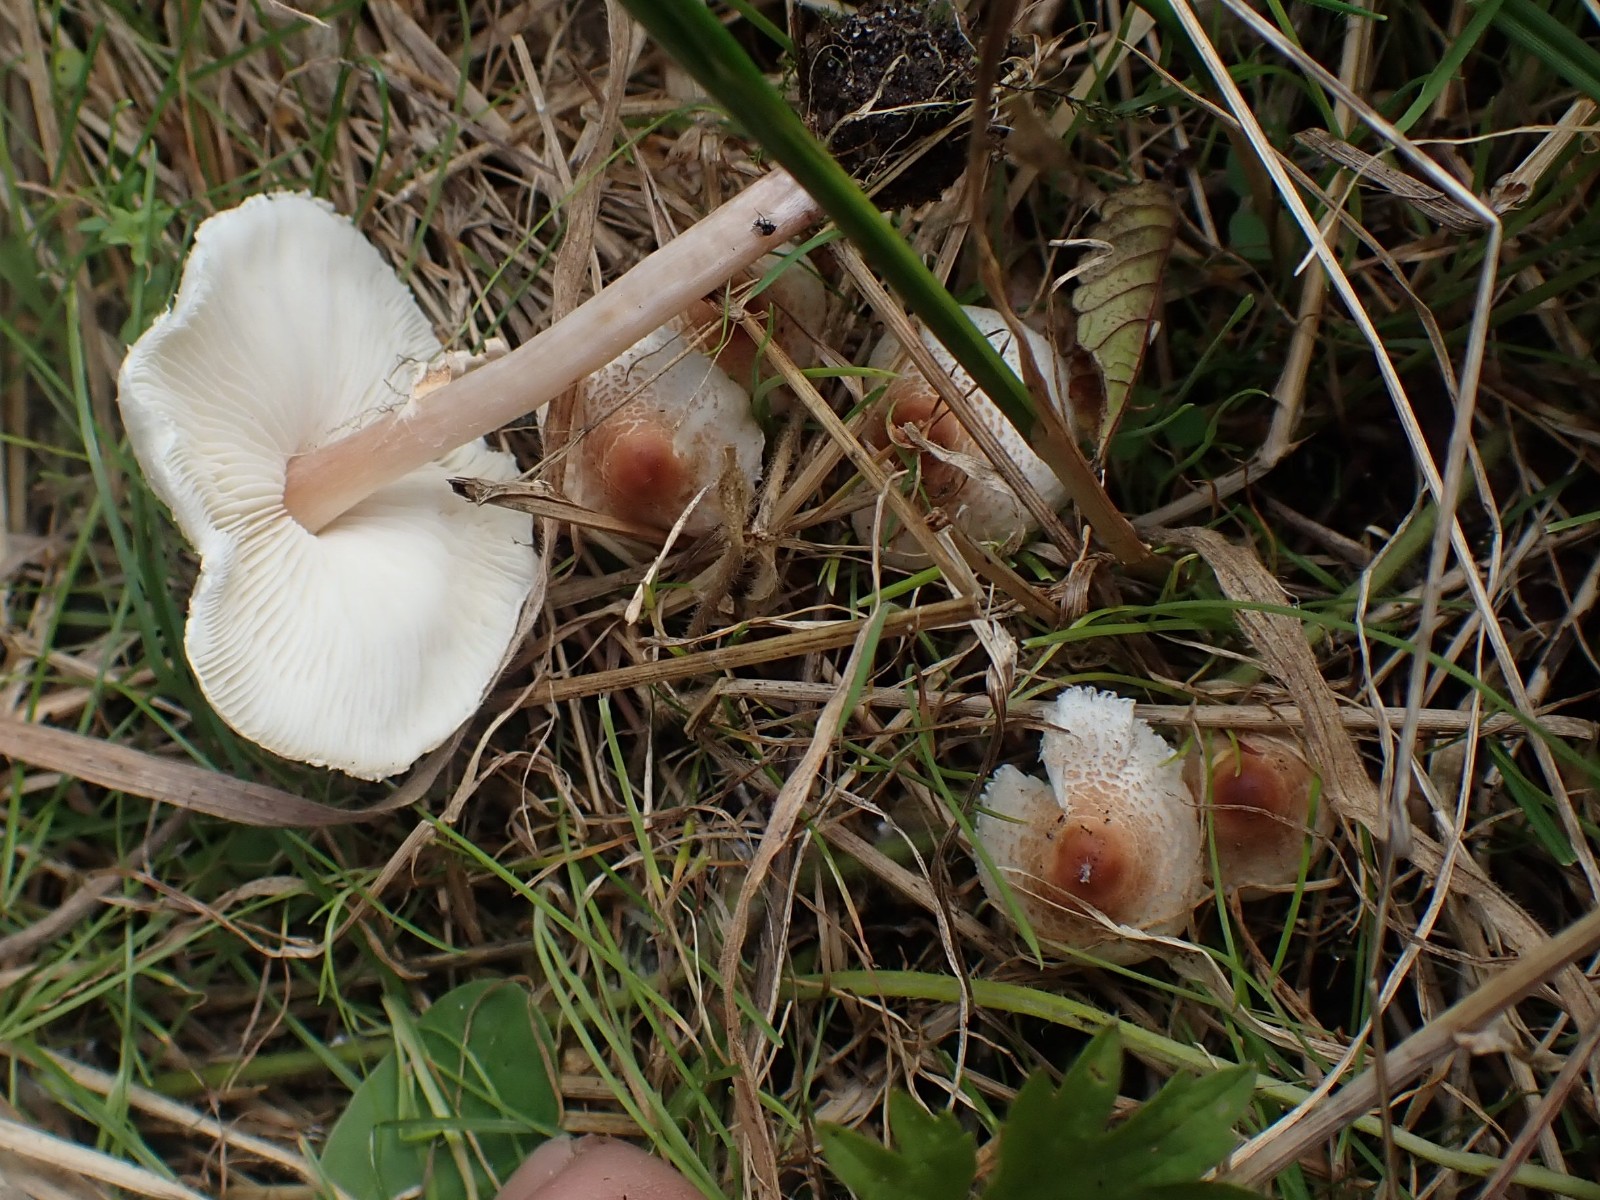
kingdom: Fungi
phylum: Basidiomycota
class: Agaricomycetes
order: Agaricales
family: Agaricaceae
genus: Lepiota
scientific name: Lepiota cristata
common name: stinkende parasolhat
